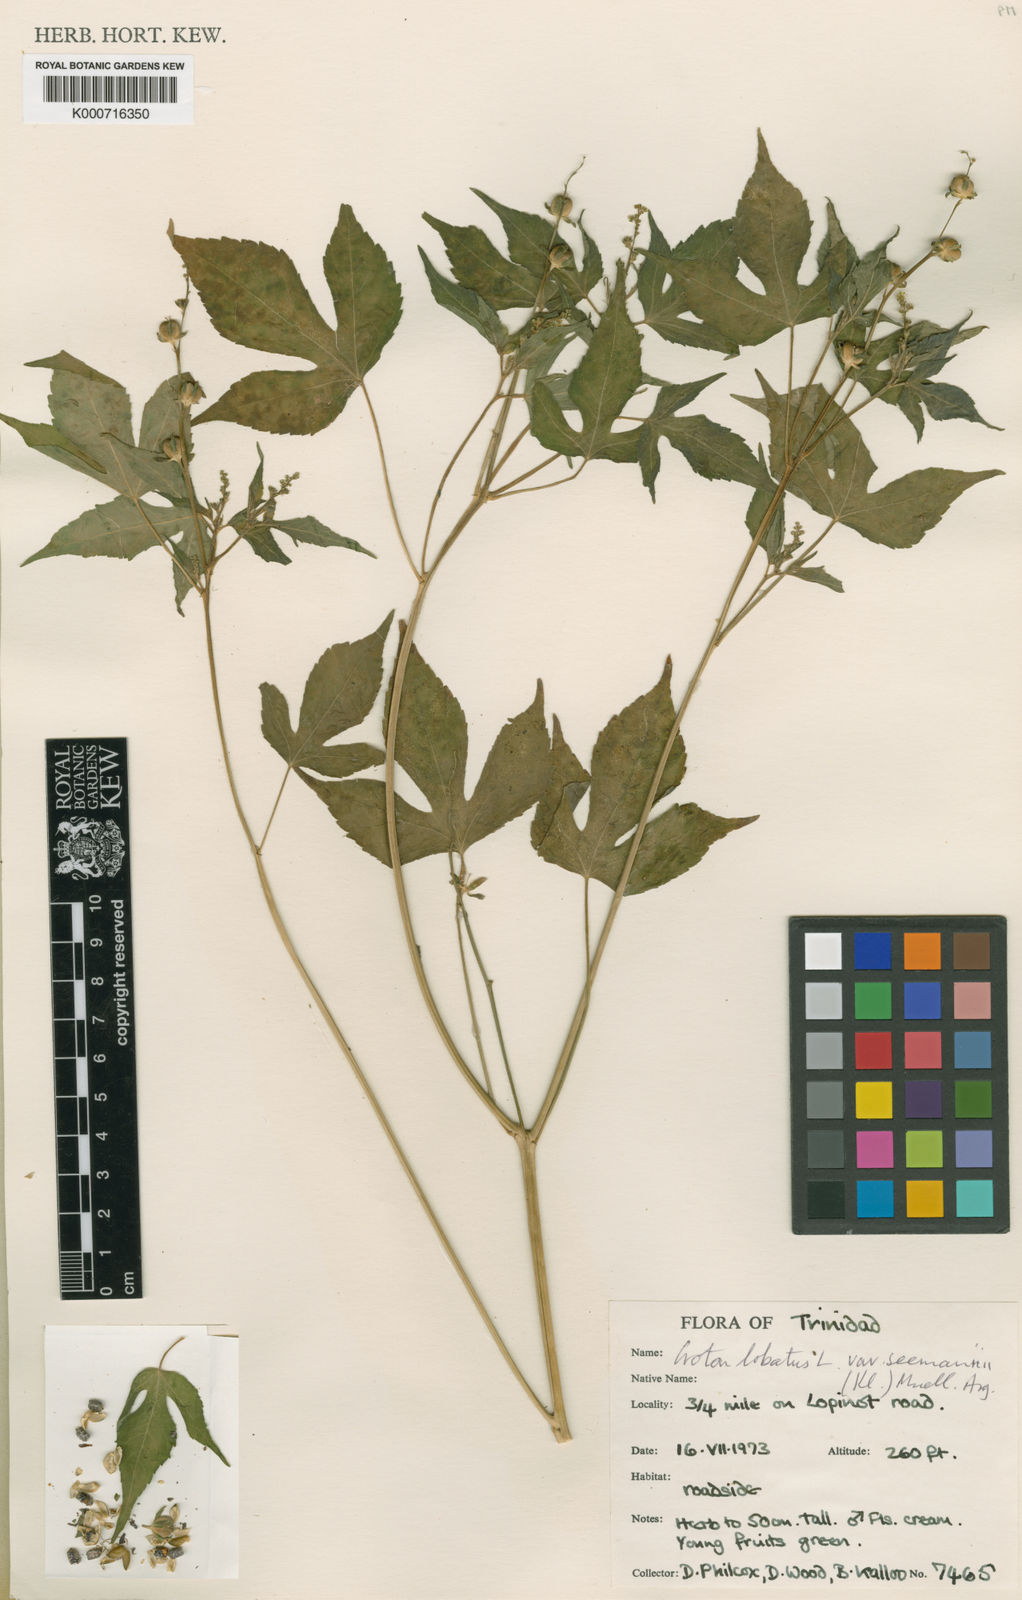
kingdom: Plantae
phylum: Tracheophyta
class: Magnoliopsida
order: Malpighiales
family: Euphorbiaceae
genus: Astraea
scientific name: Astraea lobata
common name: Lobed croton
